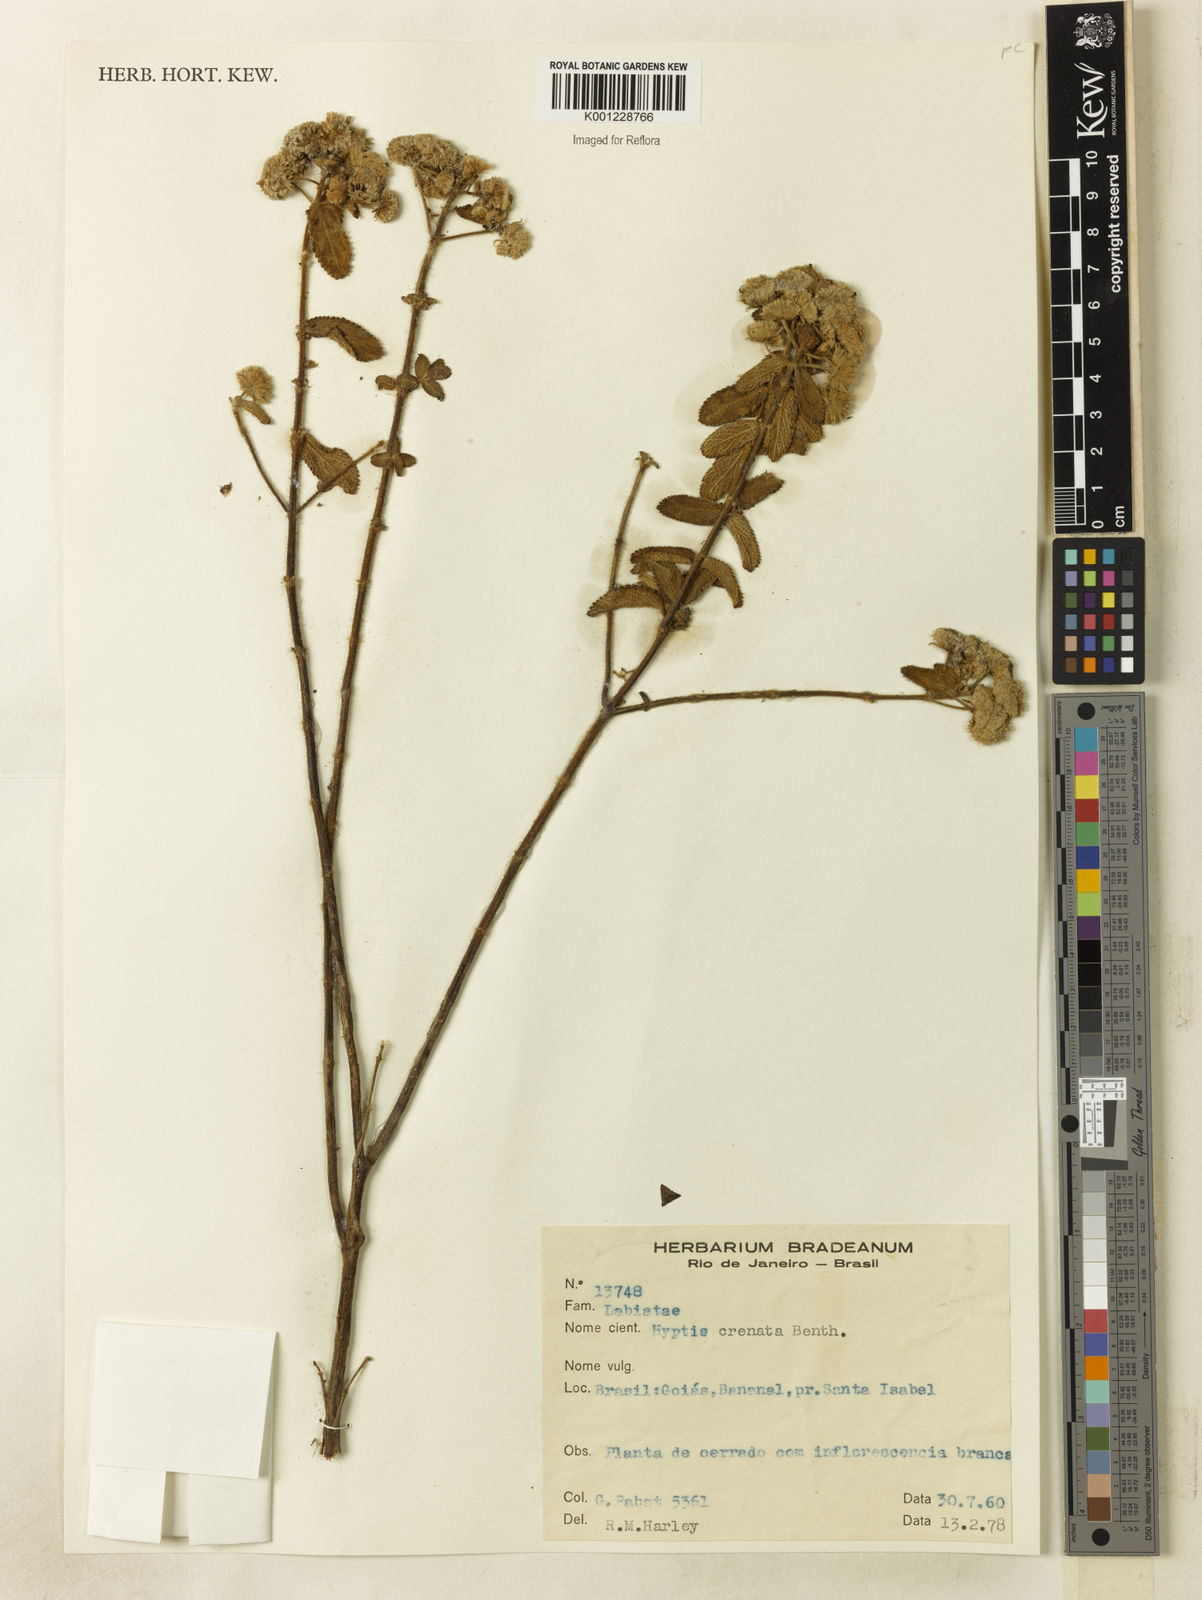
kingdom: Plantae
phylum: Tracheophyta
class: Magnoliopsida
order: Lamiales
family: Lamiaceae
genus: Hyptis
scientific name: Hyptis crenata
